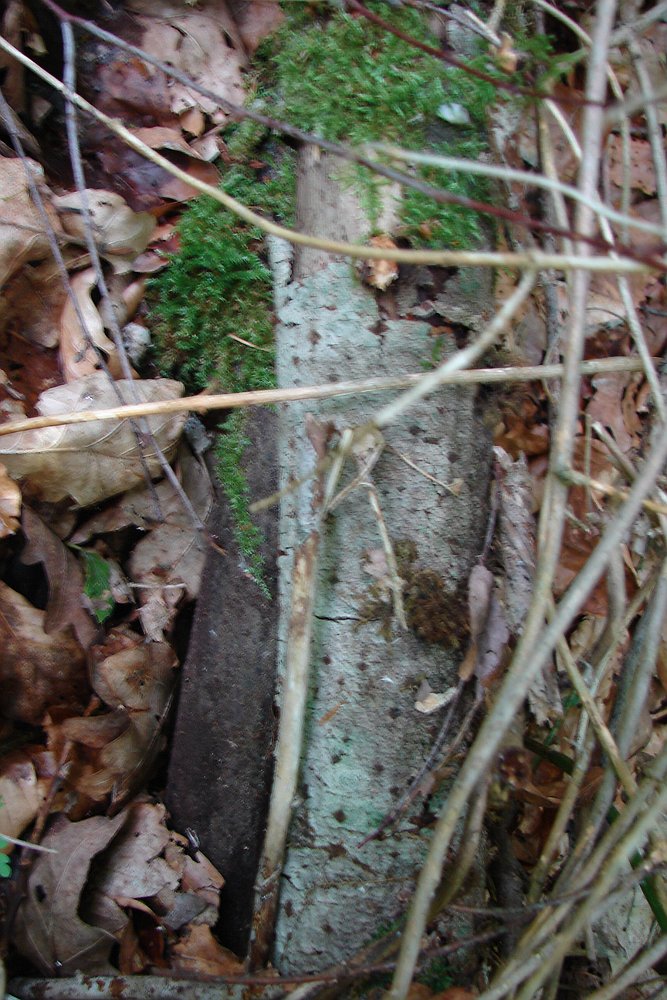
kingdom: Fungi
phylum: Basidiomycota
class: Agaricomycetes
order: Polyporales
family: Polyporaceae
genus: Picipes
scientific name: Picipes tubaeformis
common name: trompet-stilkporesvamp
